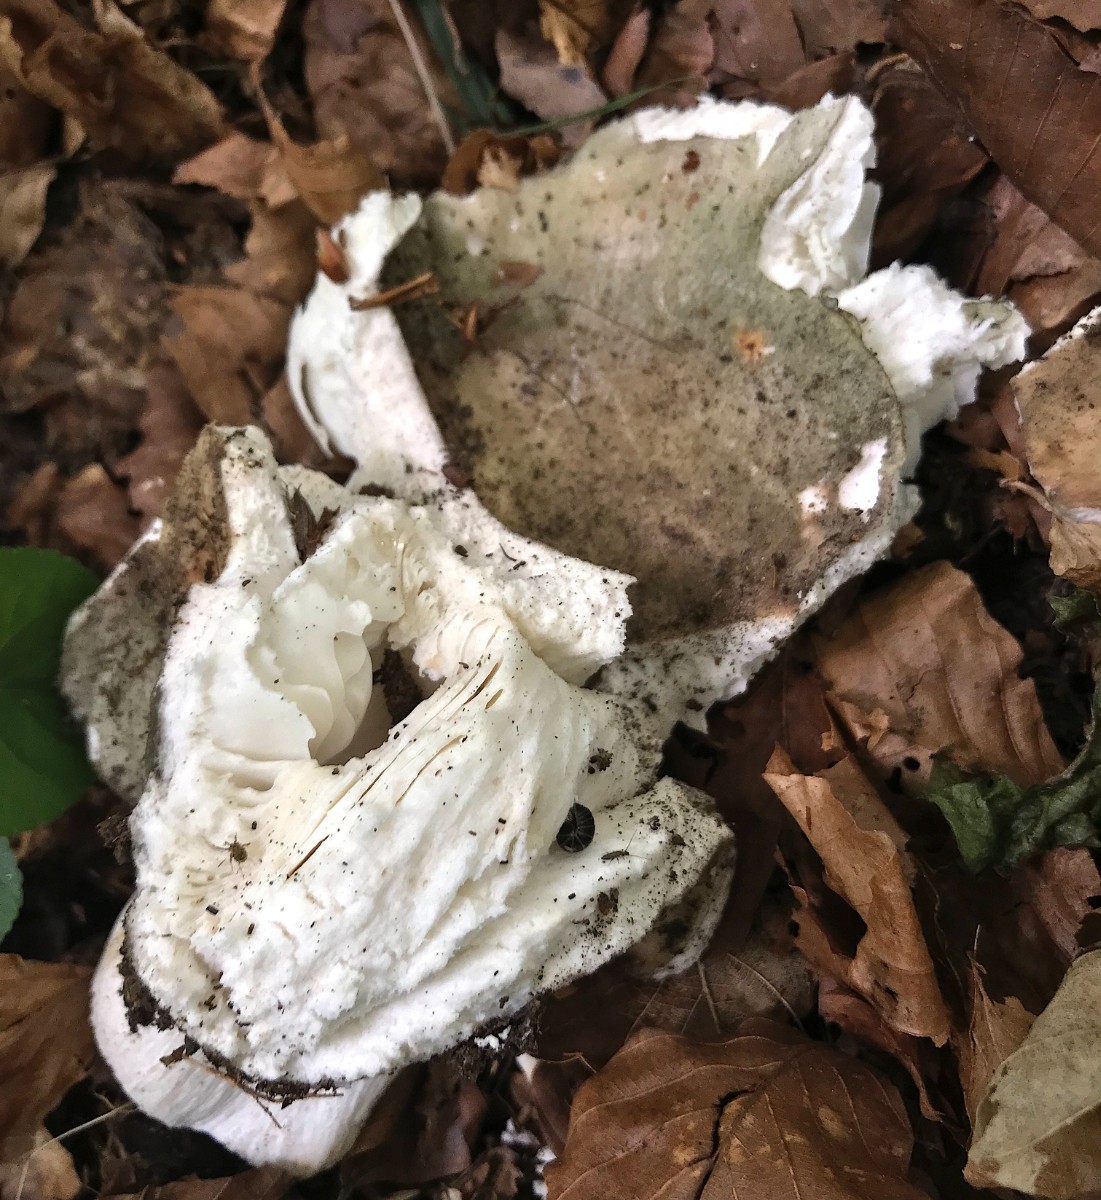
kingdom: Fungi
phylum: Basidiomycota
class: Agaricomycetes
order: Russulales
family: Russulaceae
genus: Russula
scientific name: Russula cyanoxantha
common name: broget skørhat
